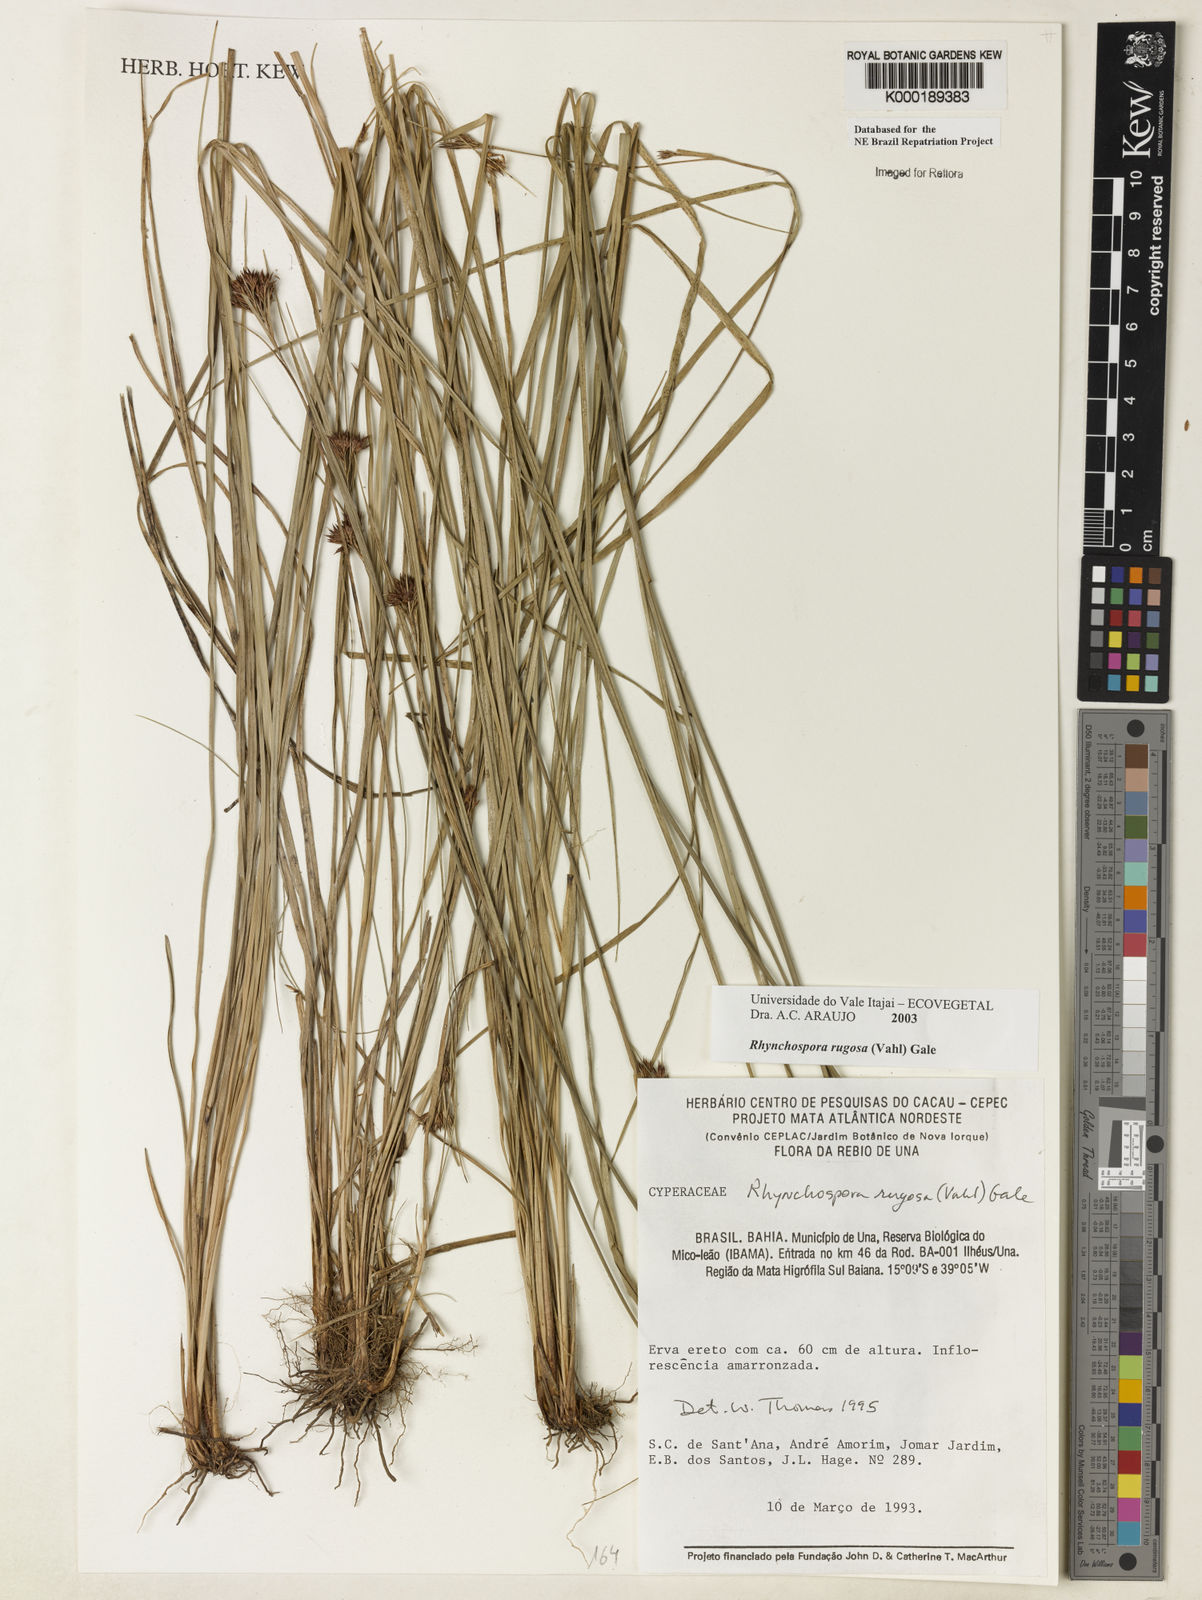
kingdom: Plantae
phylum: Tracheophyta
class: Liliopsida
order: Poales
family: Cyperaceae
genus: Rhynchospora
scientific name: Rhynchospora rugosa
